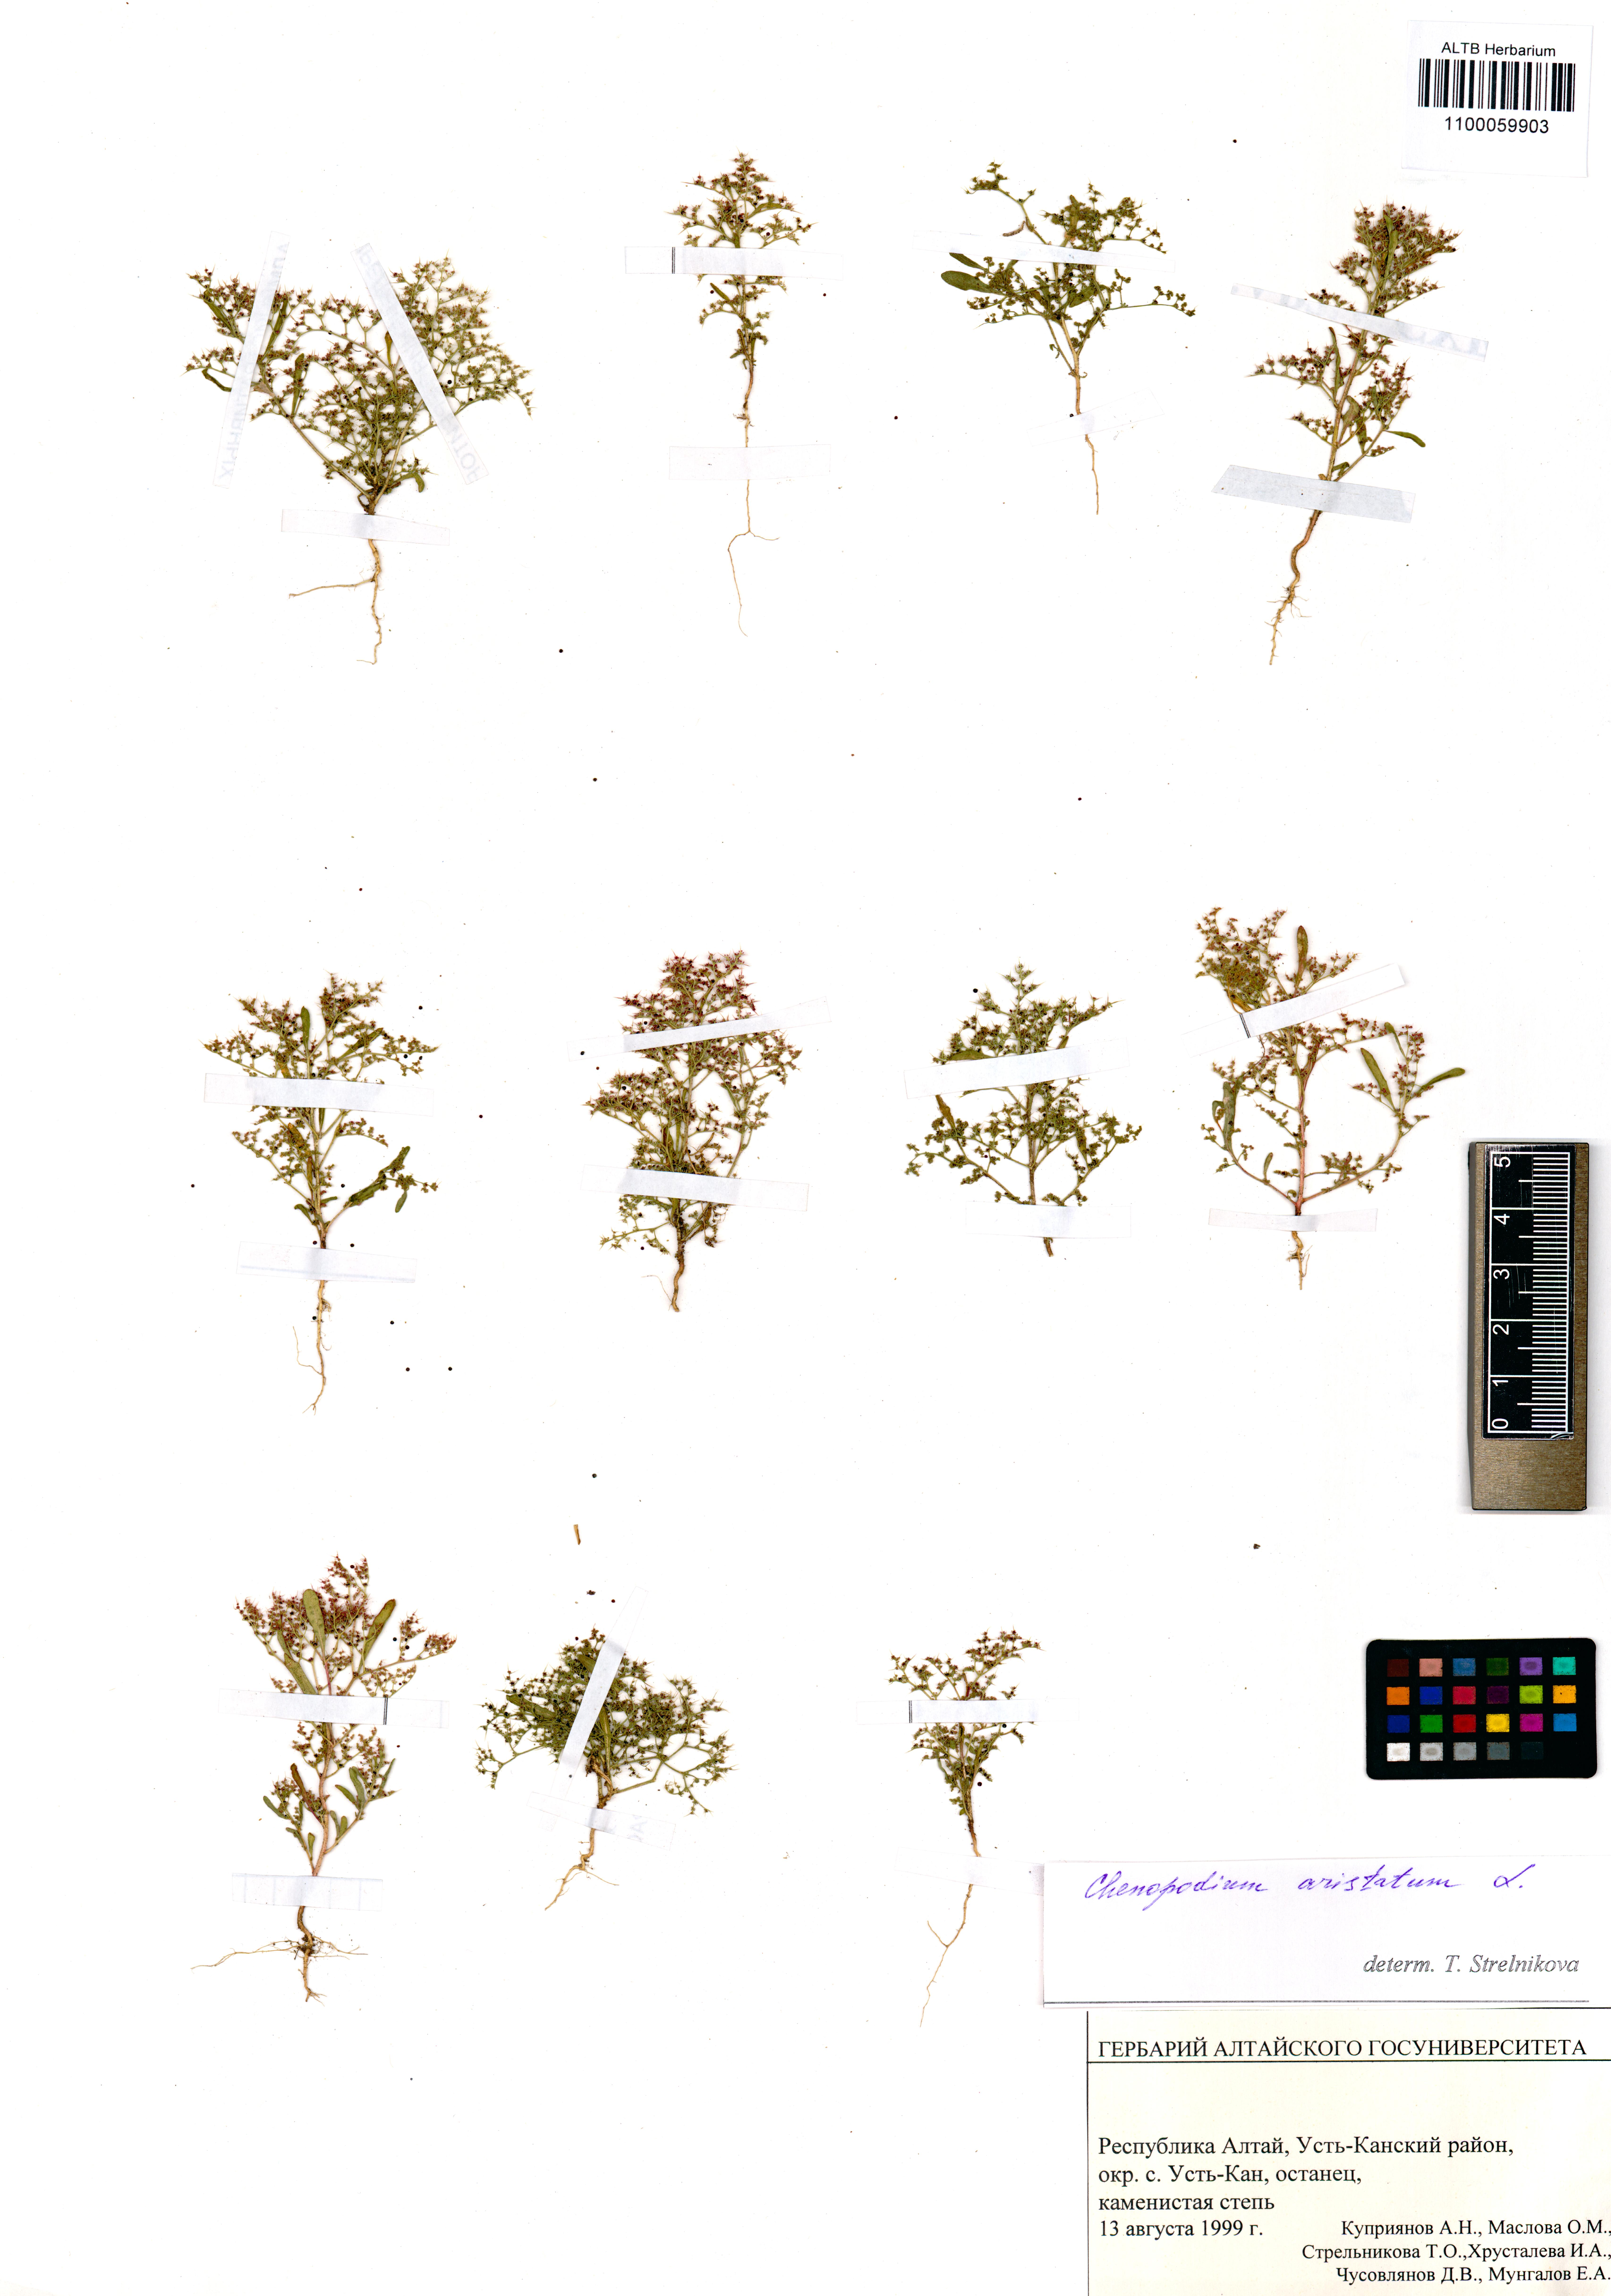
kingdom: Plantae
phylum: Tracheophyta
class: Magnoliopsida
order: Caryophyllales
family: Amaranthaceae
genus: Teloxys
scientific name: Teloxys aristata
